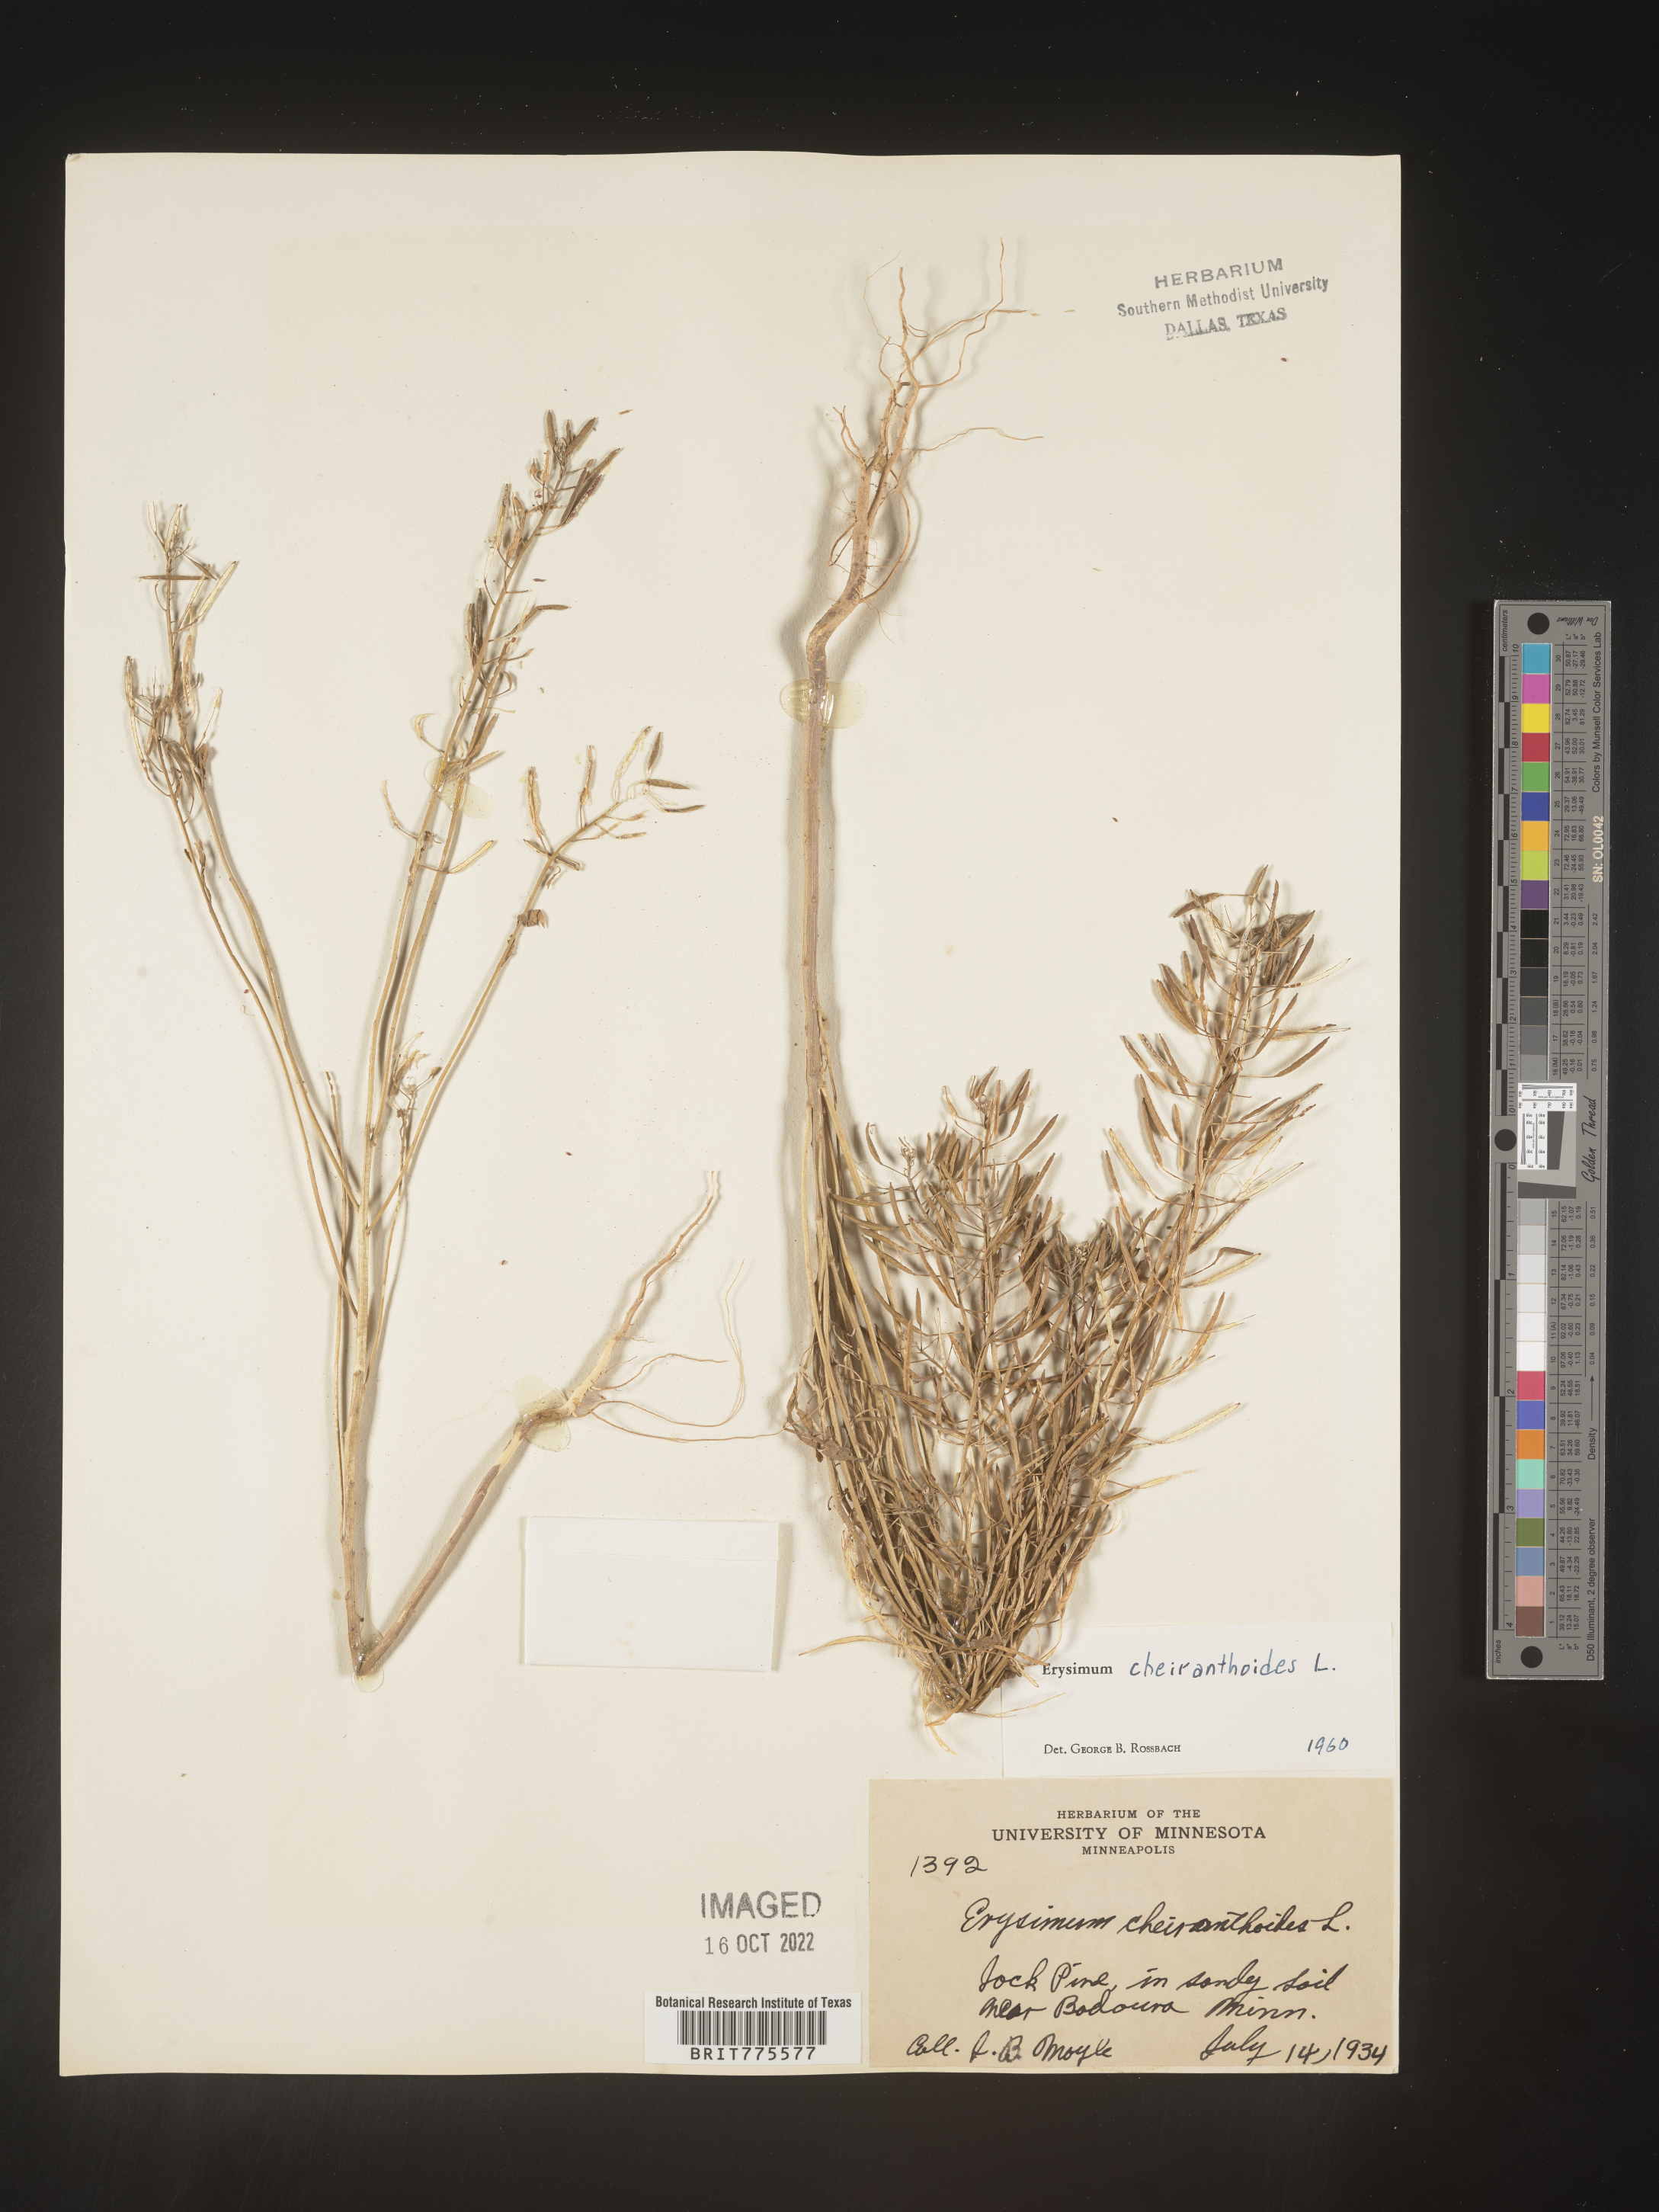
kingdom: Plantae
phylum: Tracheophyta
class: Magnoliopsida
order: Brassicales
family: Brassicaceae
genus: Erysimum
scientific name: Erysimum cheiranthoides
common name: Treacle mustard
